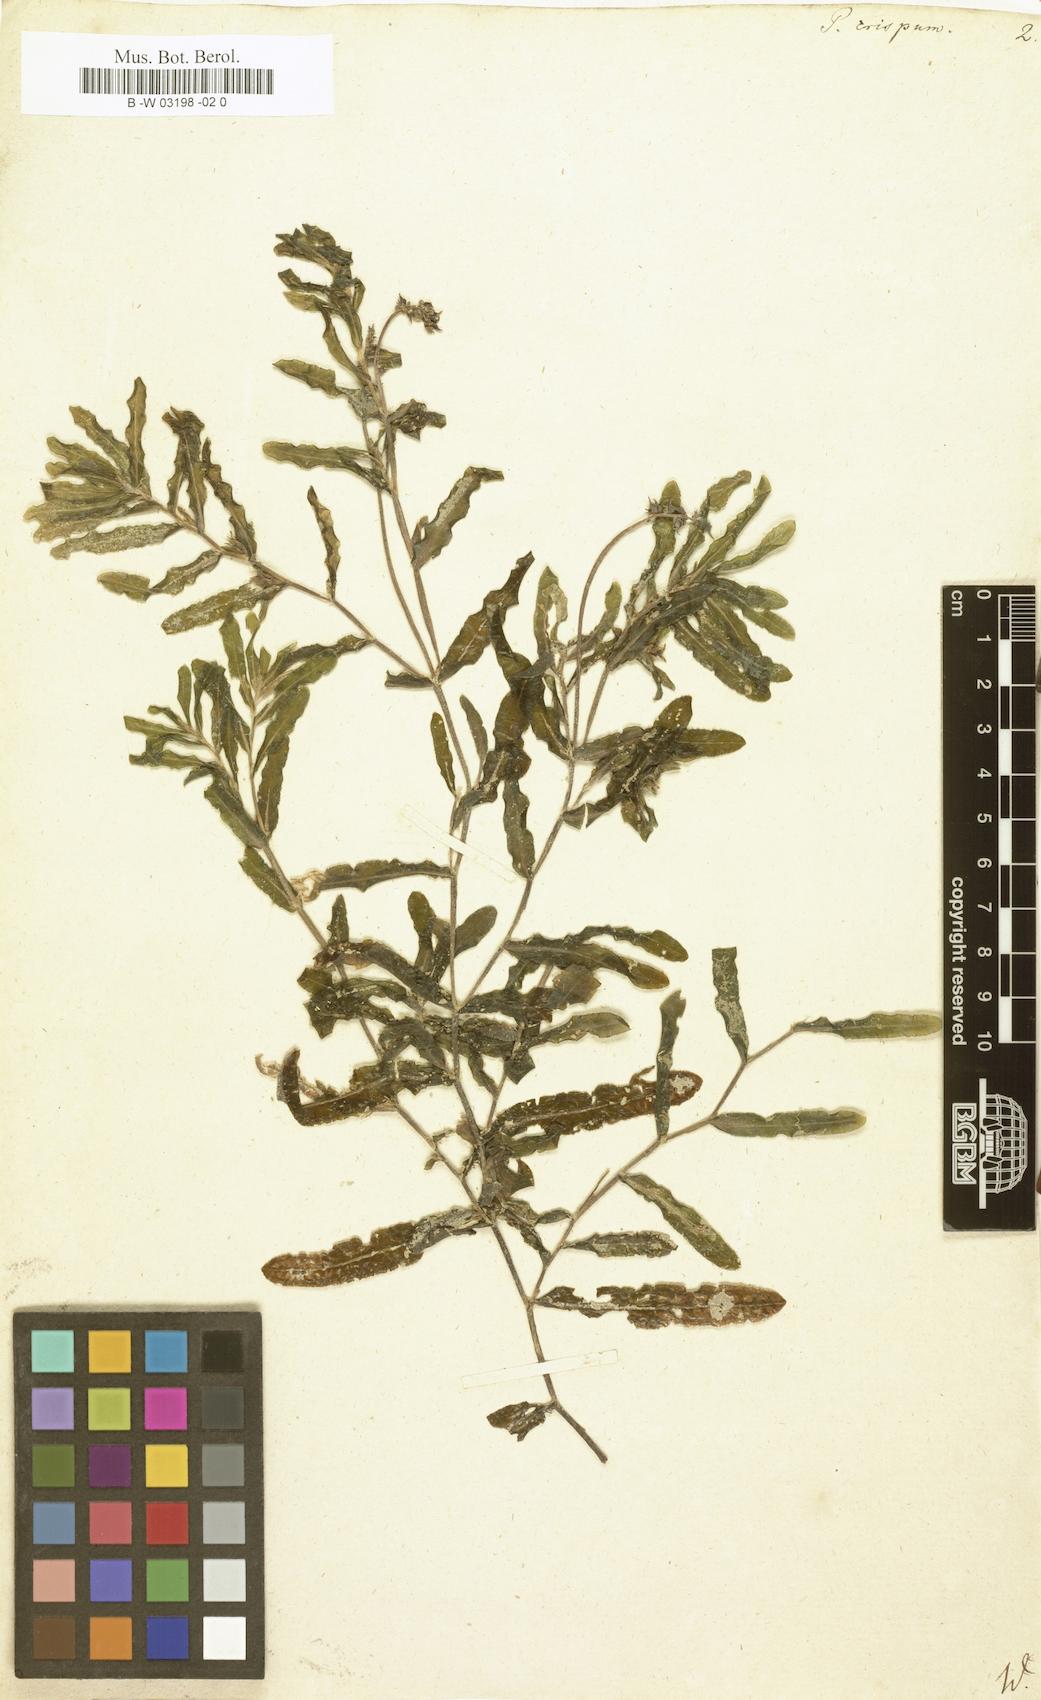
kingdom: Plantae
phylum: Tracheophyta
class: Liliopsida
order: Alismatales
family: Potamogetonaceae
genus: Potamogeton
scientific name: Potamogeton crispus
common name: Curled pondweed
